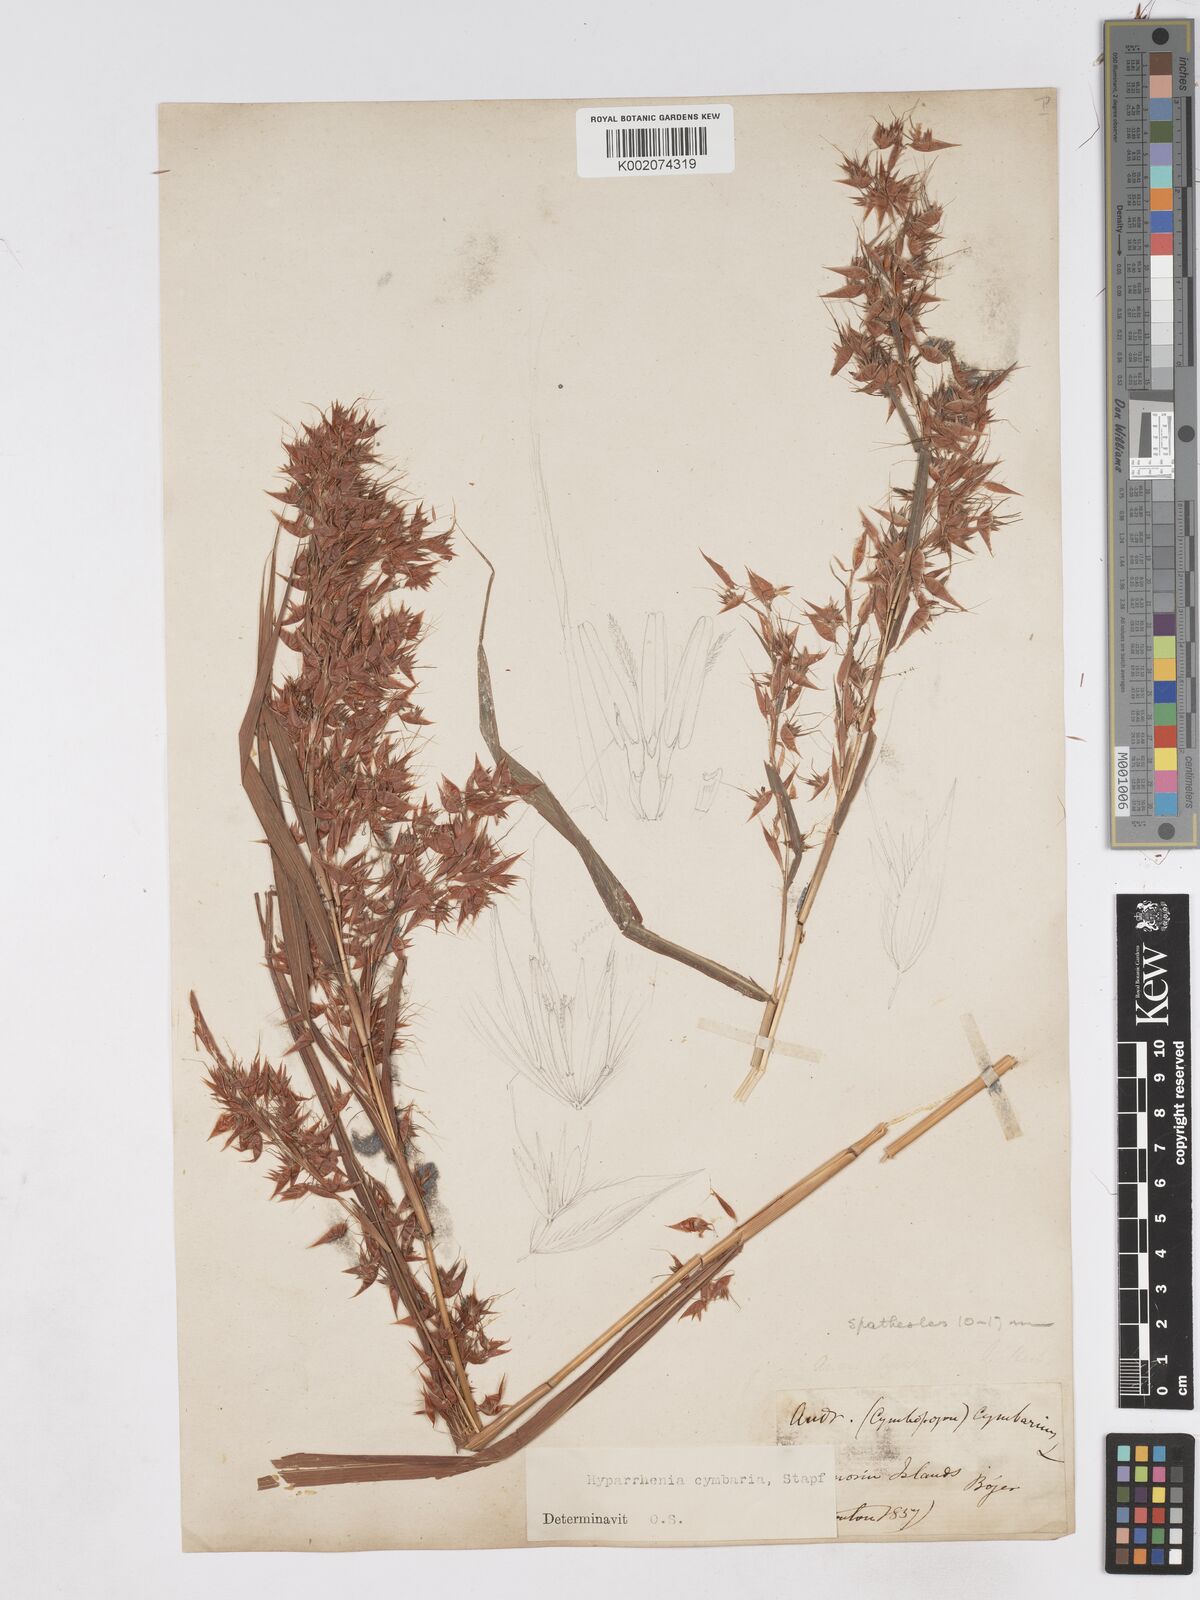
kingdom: Plantae
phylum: Tracheophyta
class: Liliopsida
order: Poales
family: Poaceae
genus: Hyparrhenia
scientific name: Hyparrhenia cymbaria
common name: Boat thatching grass
